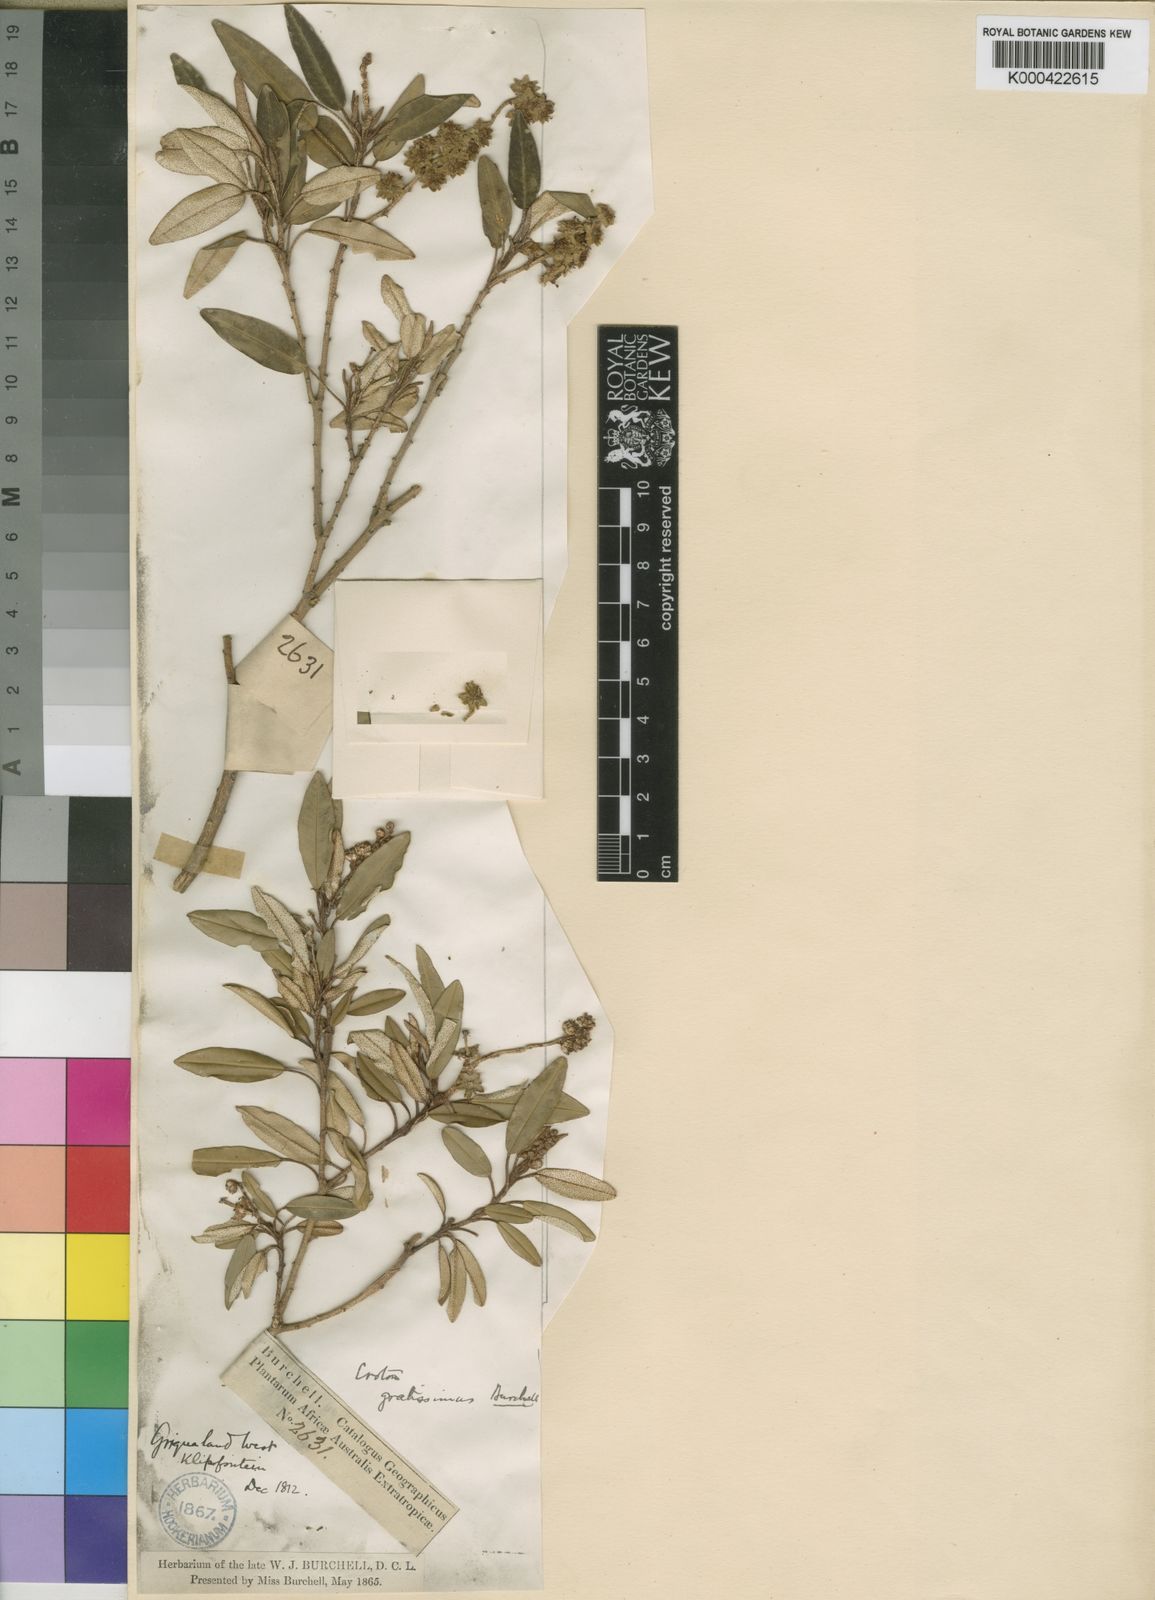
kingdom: Plantae
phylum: Tracheophyta
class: Magnoliopsida
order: Malpighiales
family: Euphorbiaceae
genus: Croton
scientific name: Croton gratissimus
